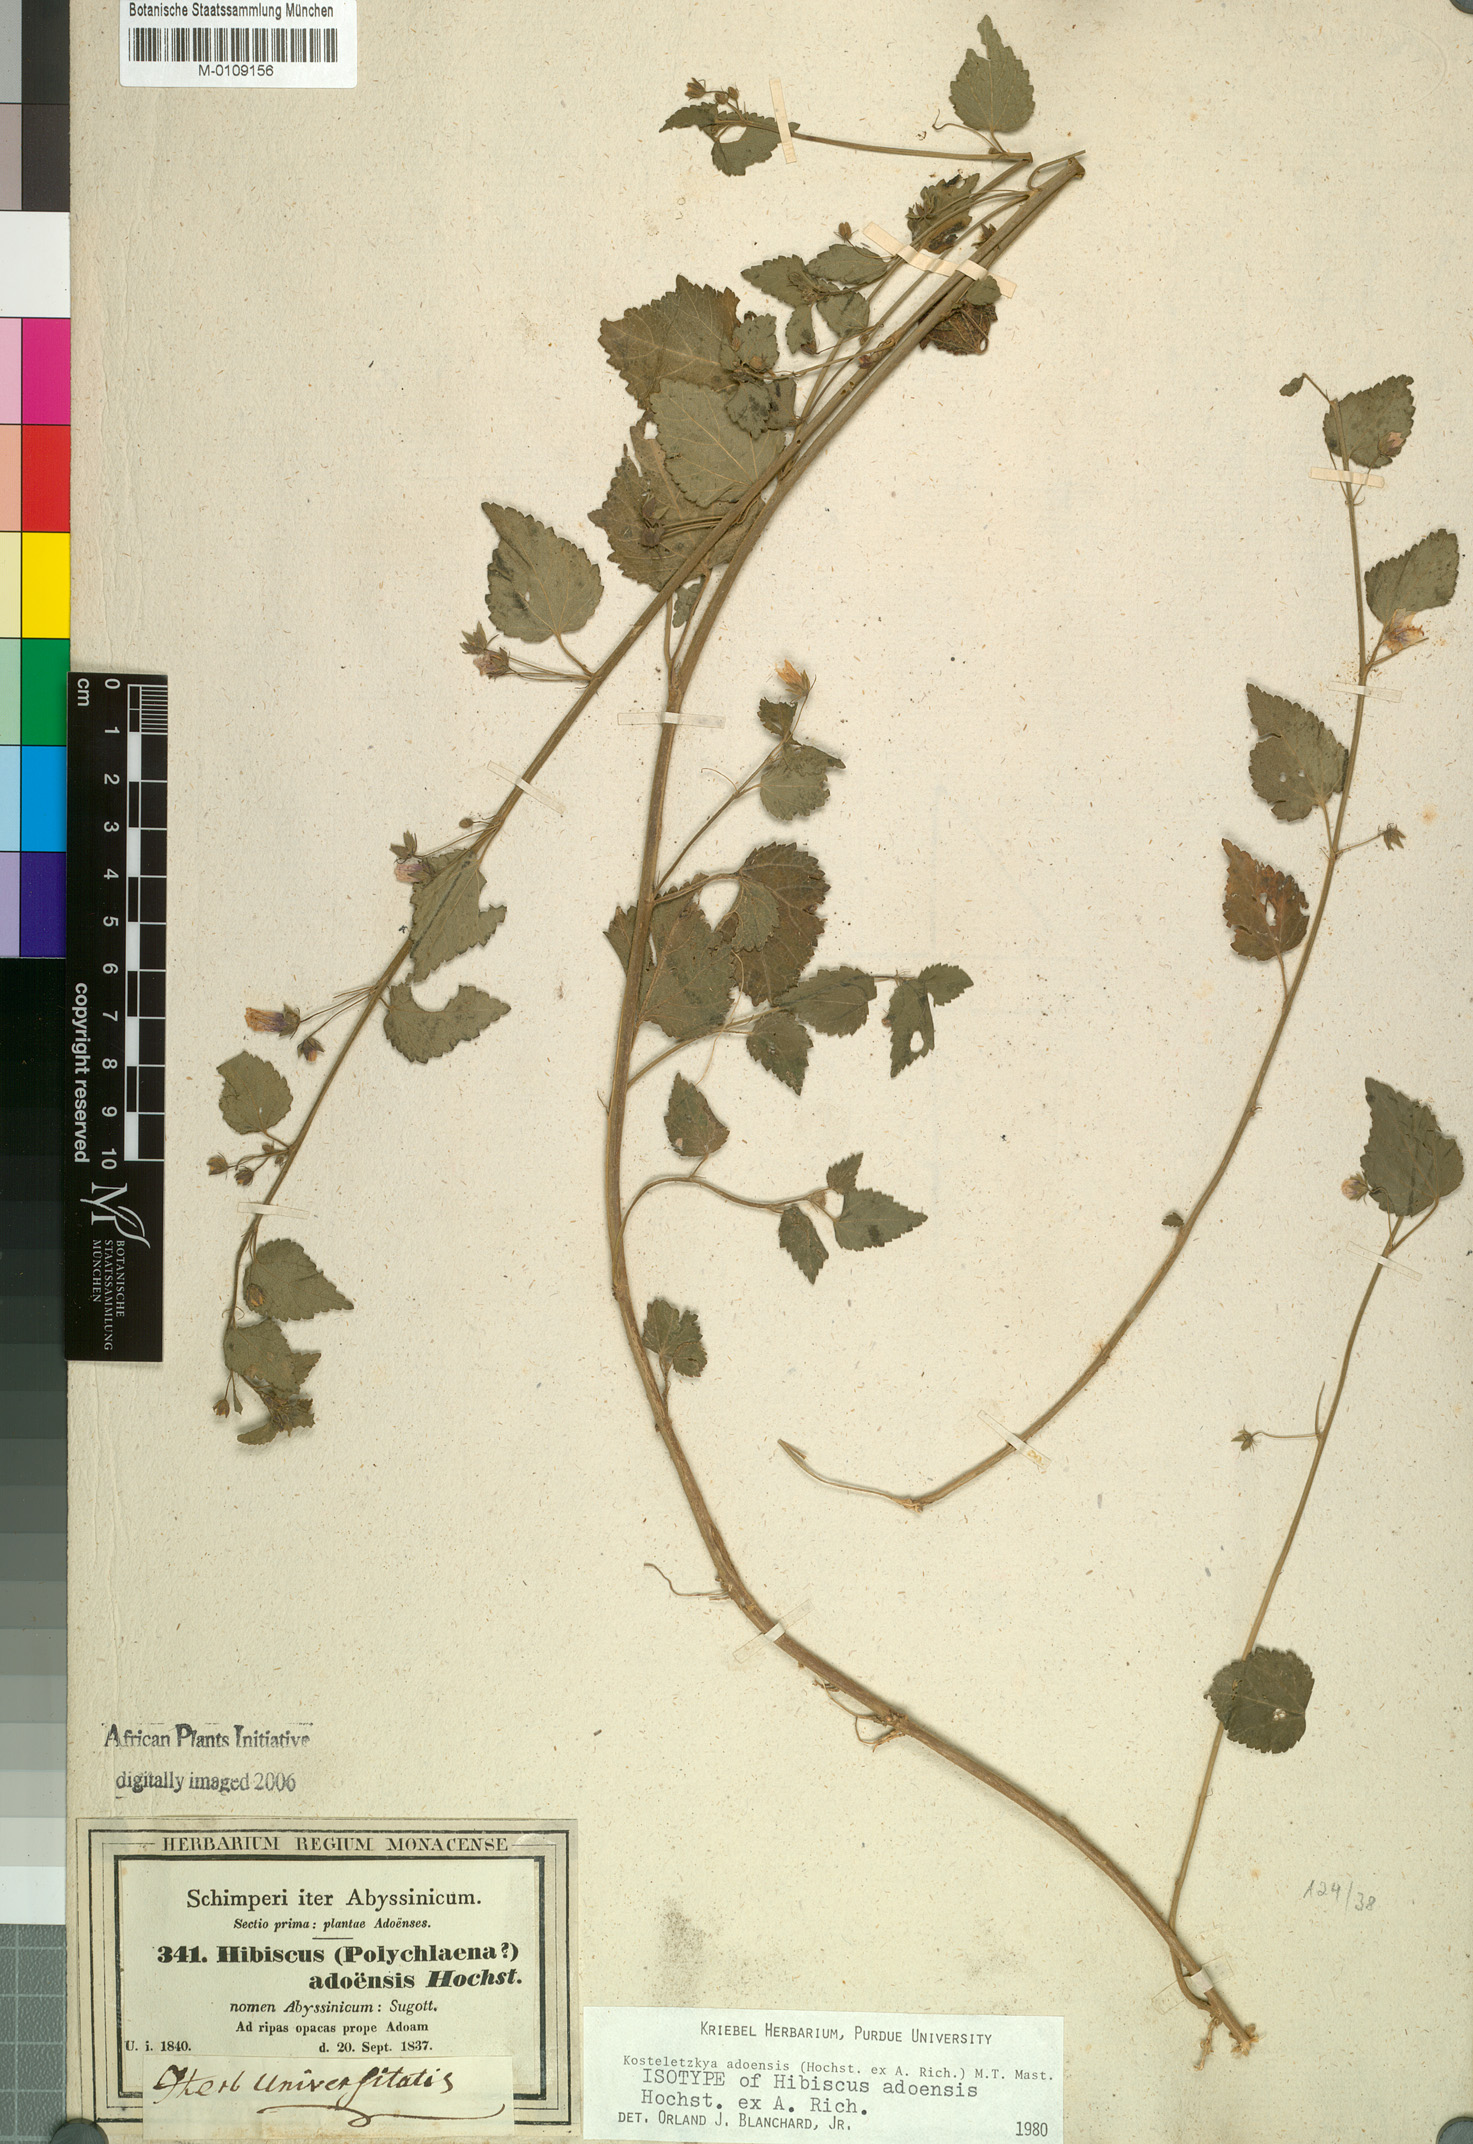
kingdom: Plantae
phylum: Tracheophyta
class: Magnoliopsida
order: Malvales
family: Malvaceae
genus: Kosteletzkya
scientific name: Kosteletzkya adoensis
